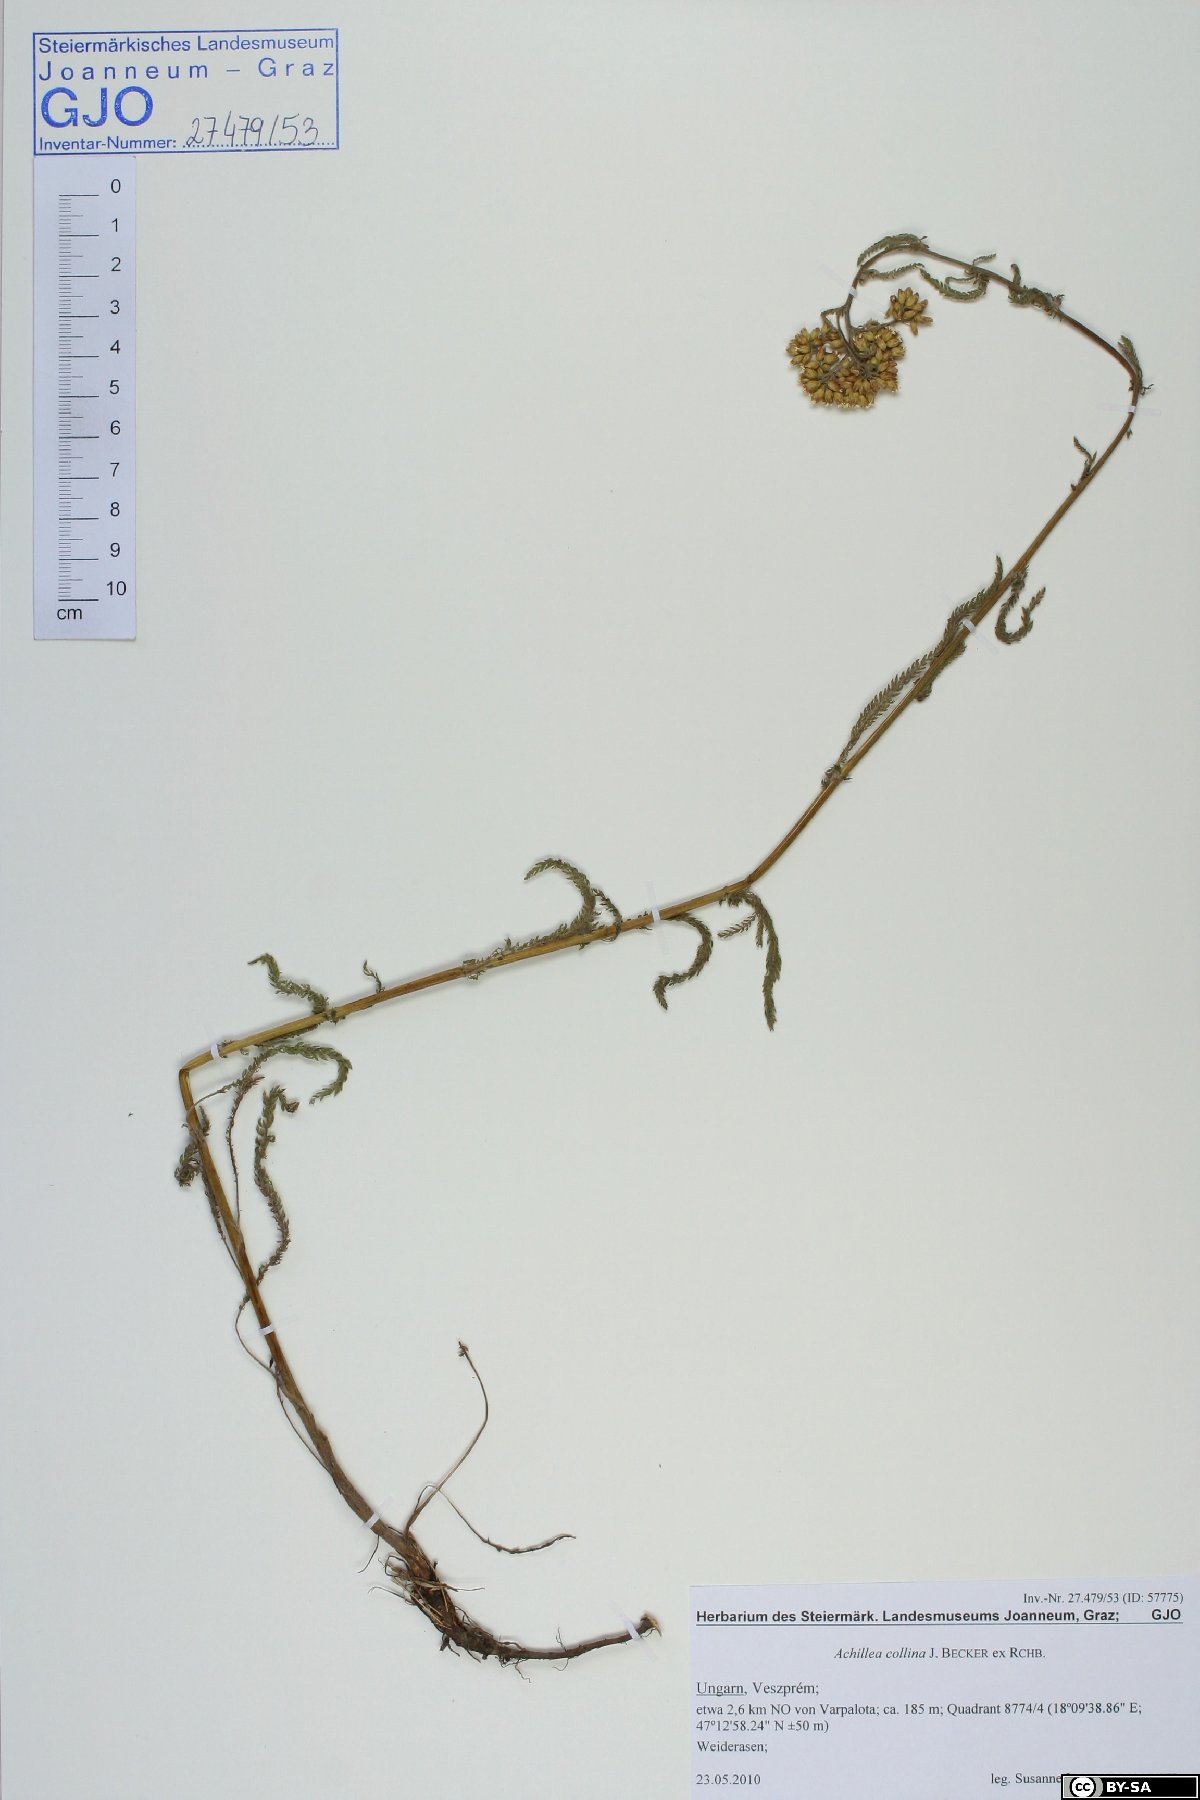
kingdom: Plantae
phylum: Tracheophyta
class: Magnoliopsida
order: Asterales
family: Asteraceae
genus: Achillea
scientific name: Achillea collina
